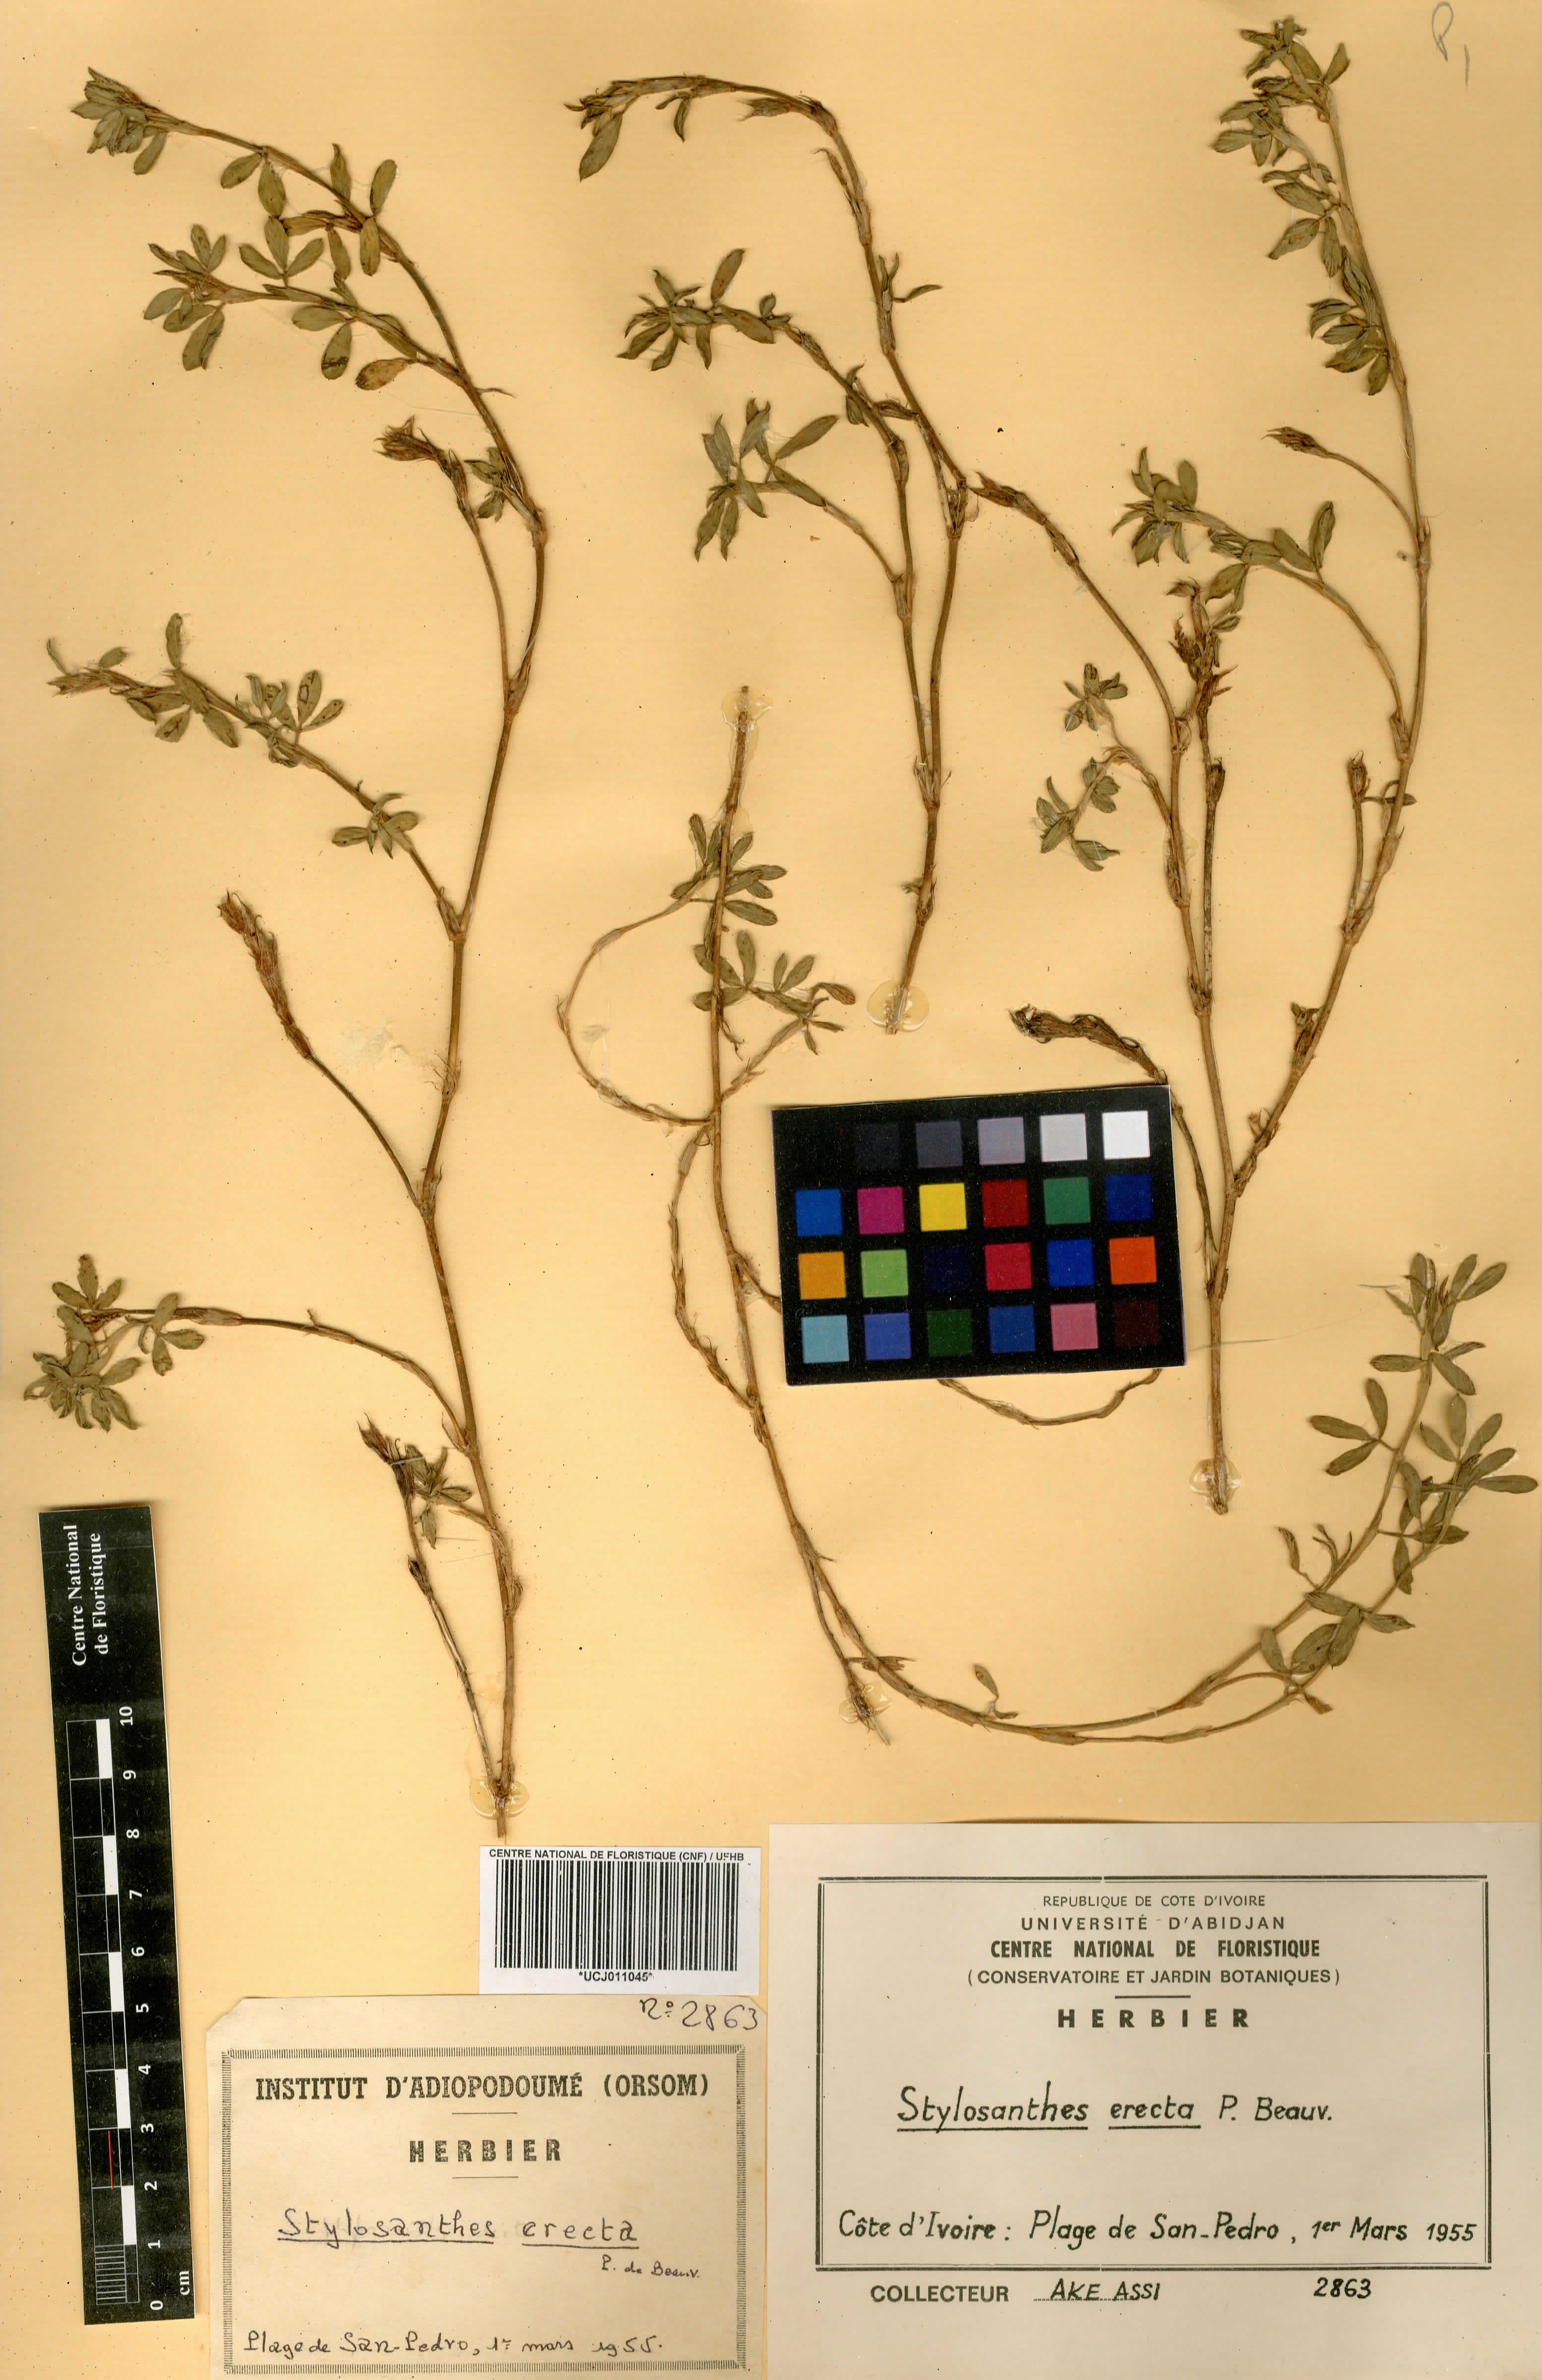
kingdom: Plantae
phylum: Tracheophyta
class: Magnoliopsida
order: Fabales
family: Fabaceae
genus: Stylosanthes
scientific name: Stylosanthes erecta
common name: Nigerian stylo
